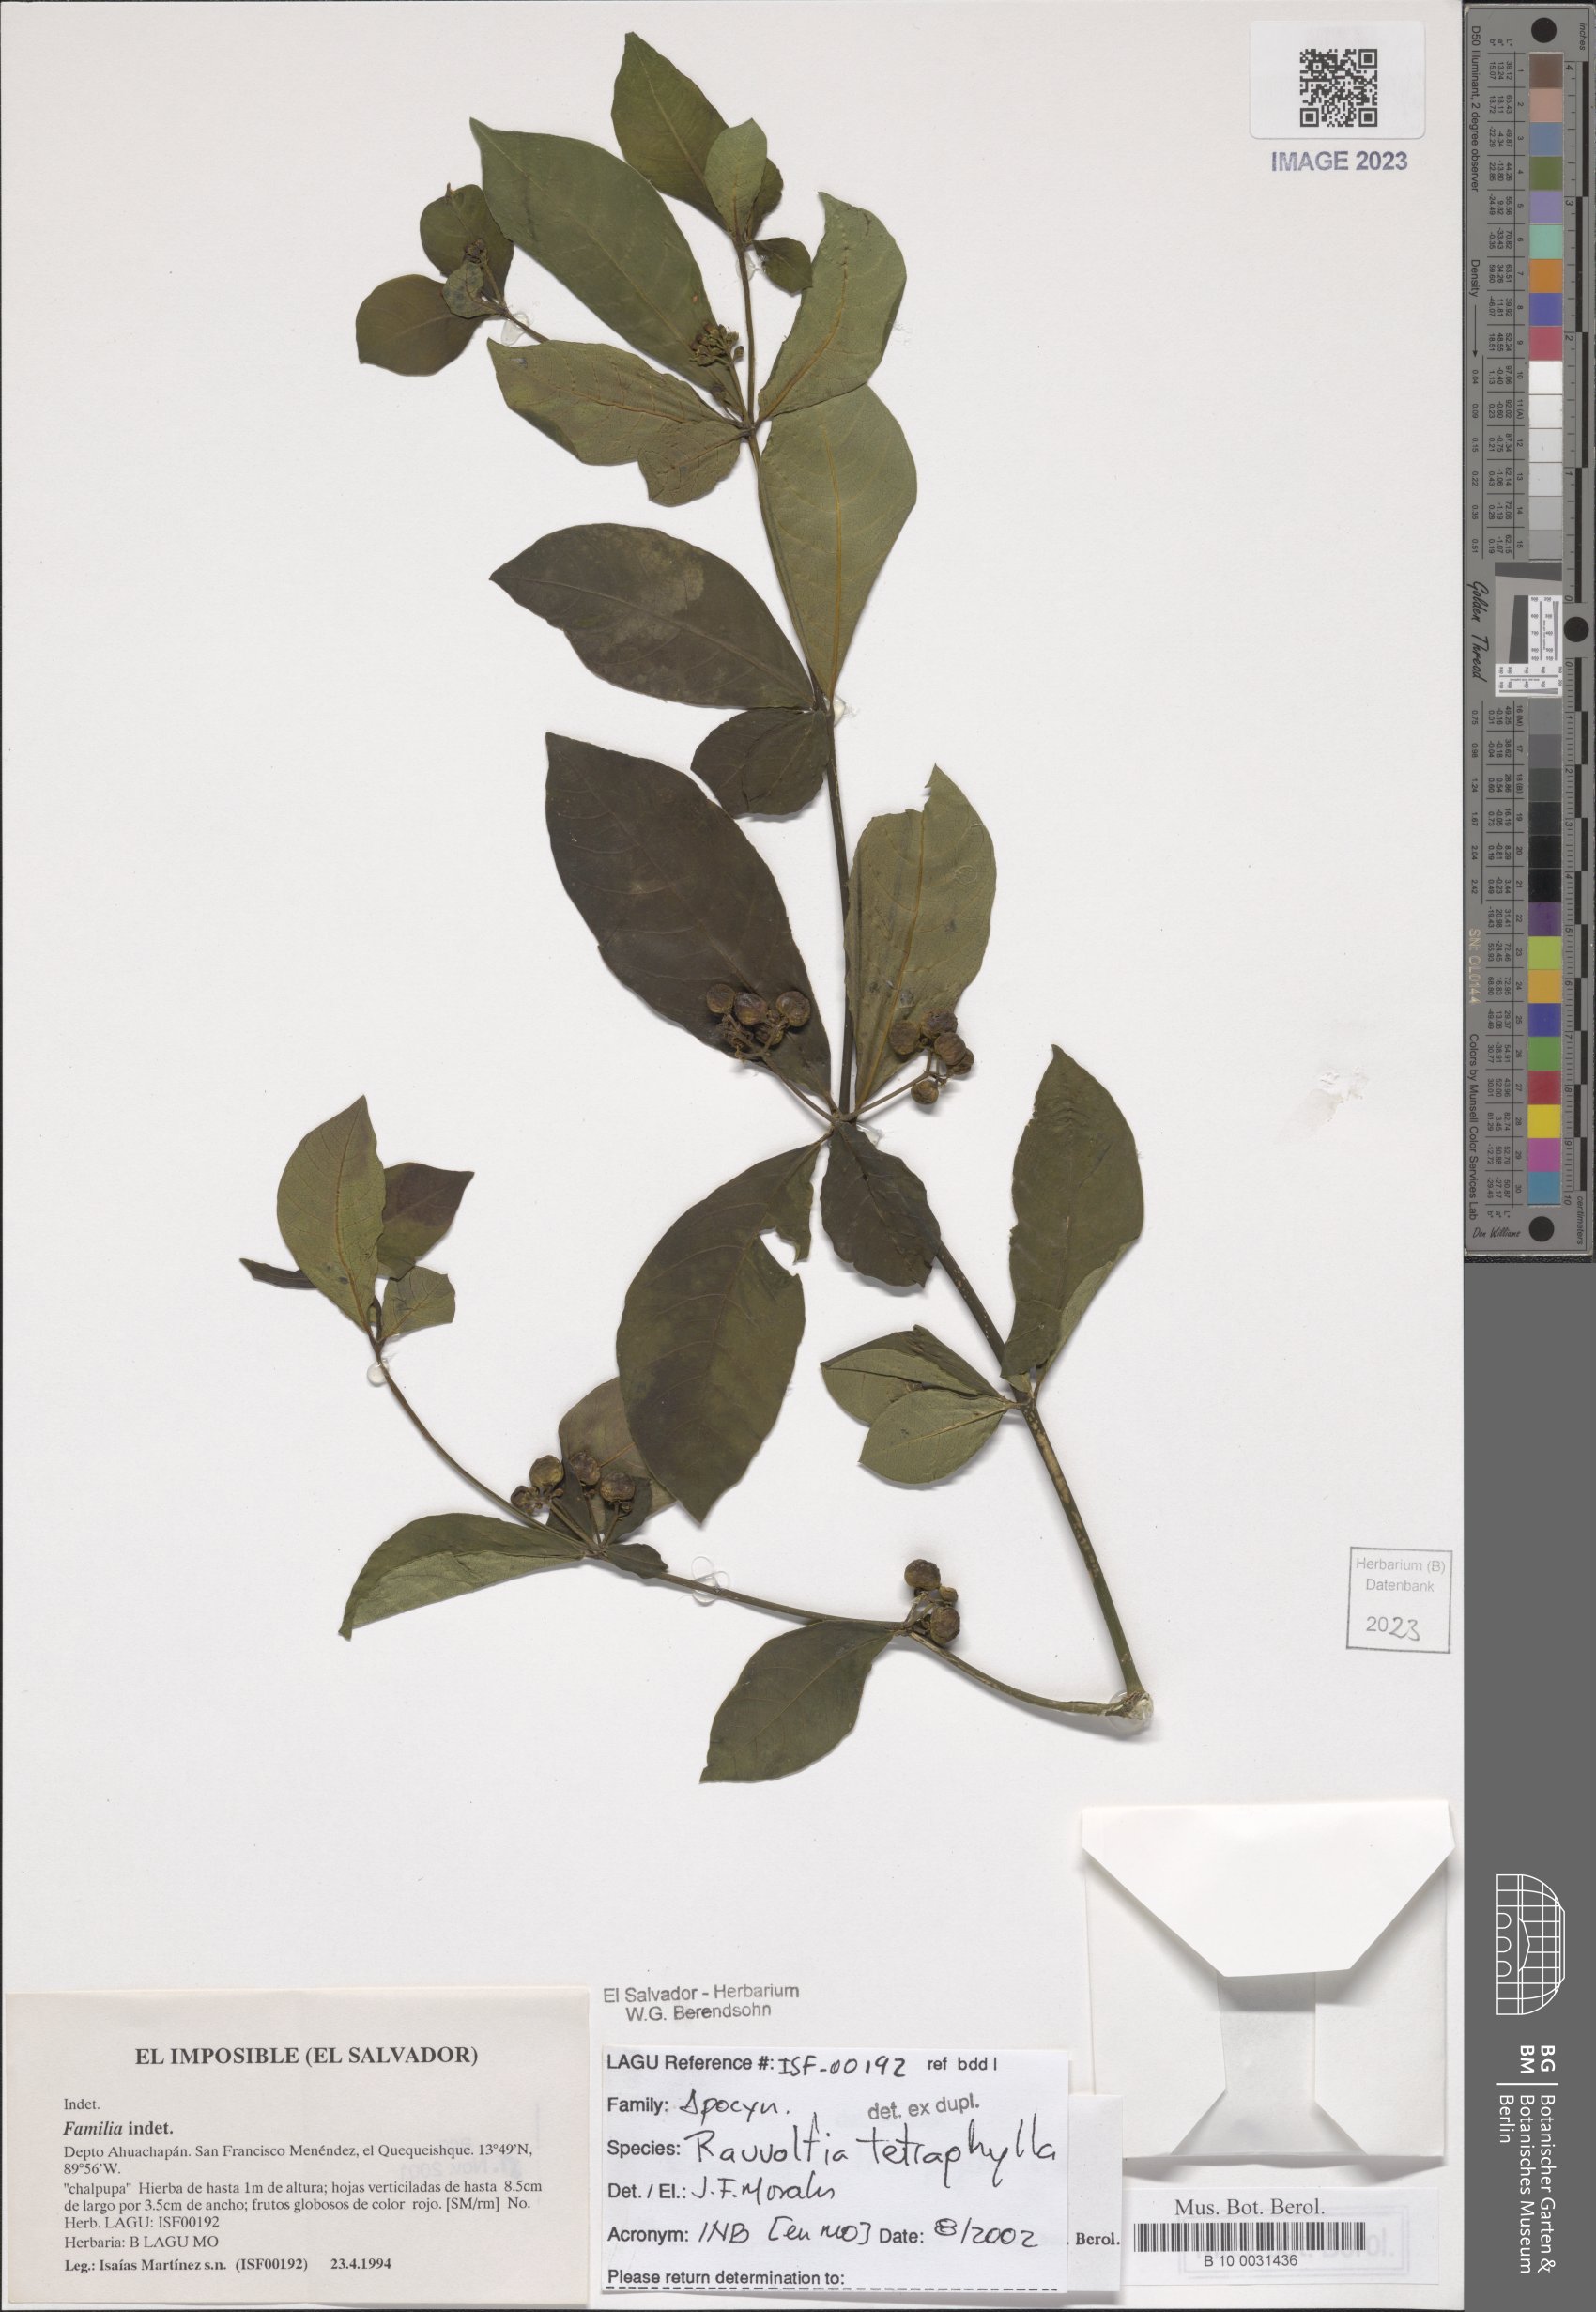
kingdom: Plantae
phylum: Tracheophyta
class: Magnoliopsida
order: Gentianales
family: Apocynaceae
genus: Rauvolfia
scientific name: Rauvolfia tetraphylla
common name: Four-leaf devil-pepper
